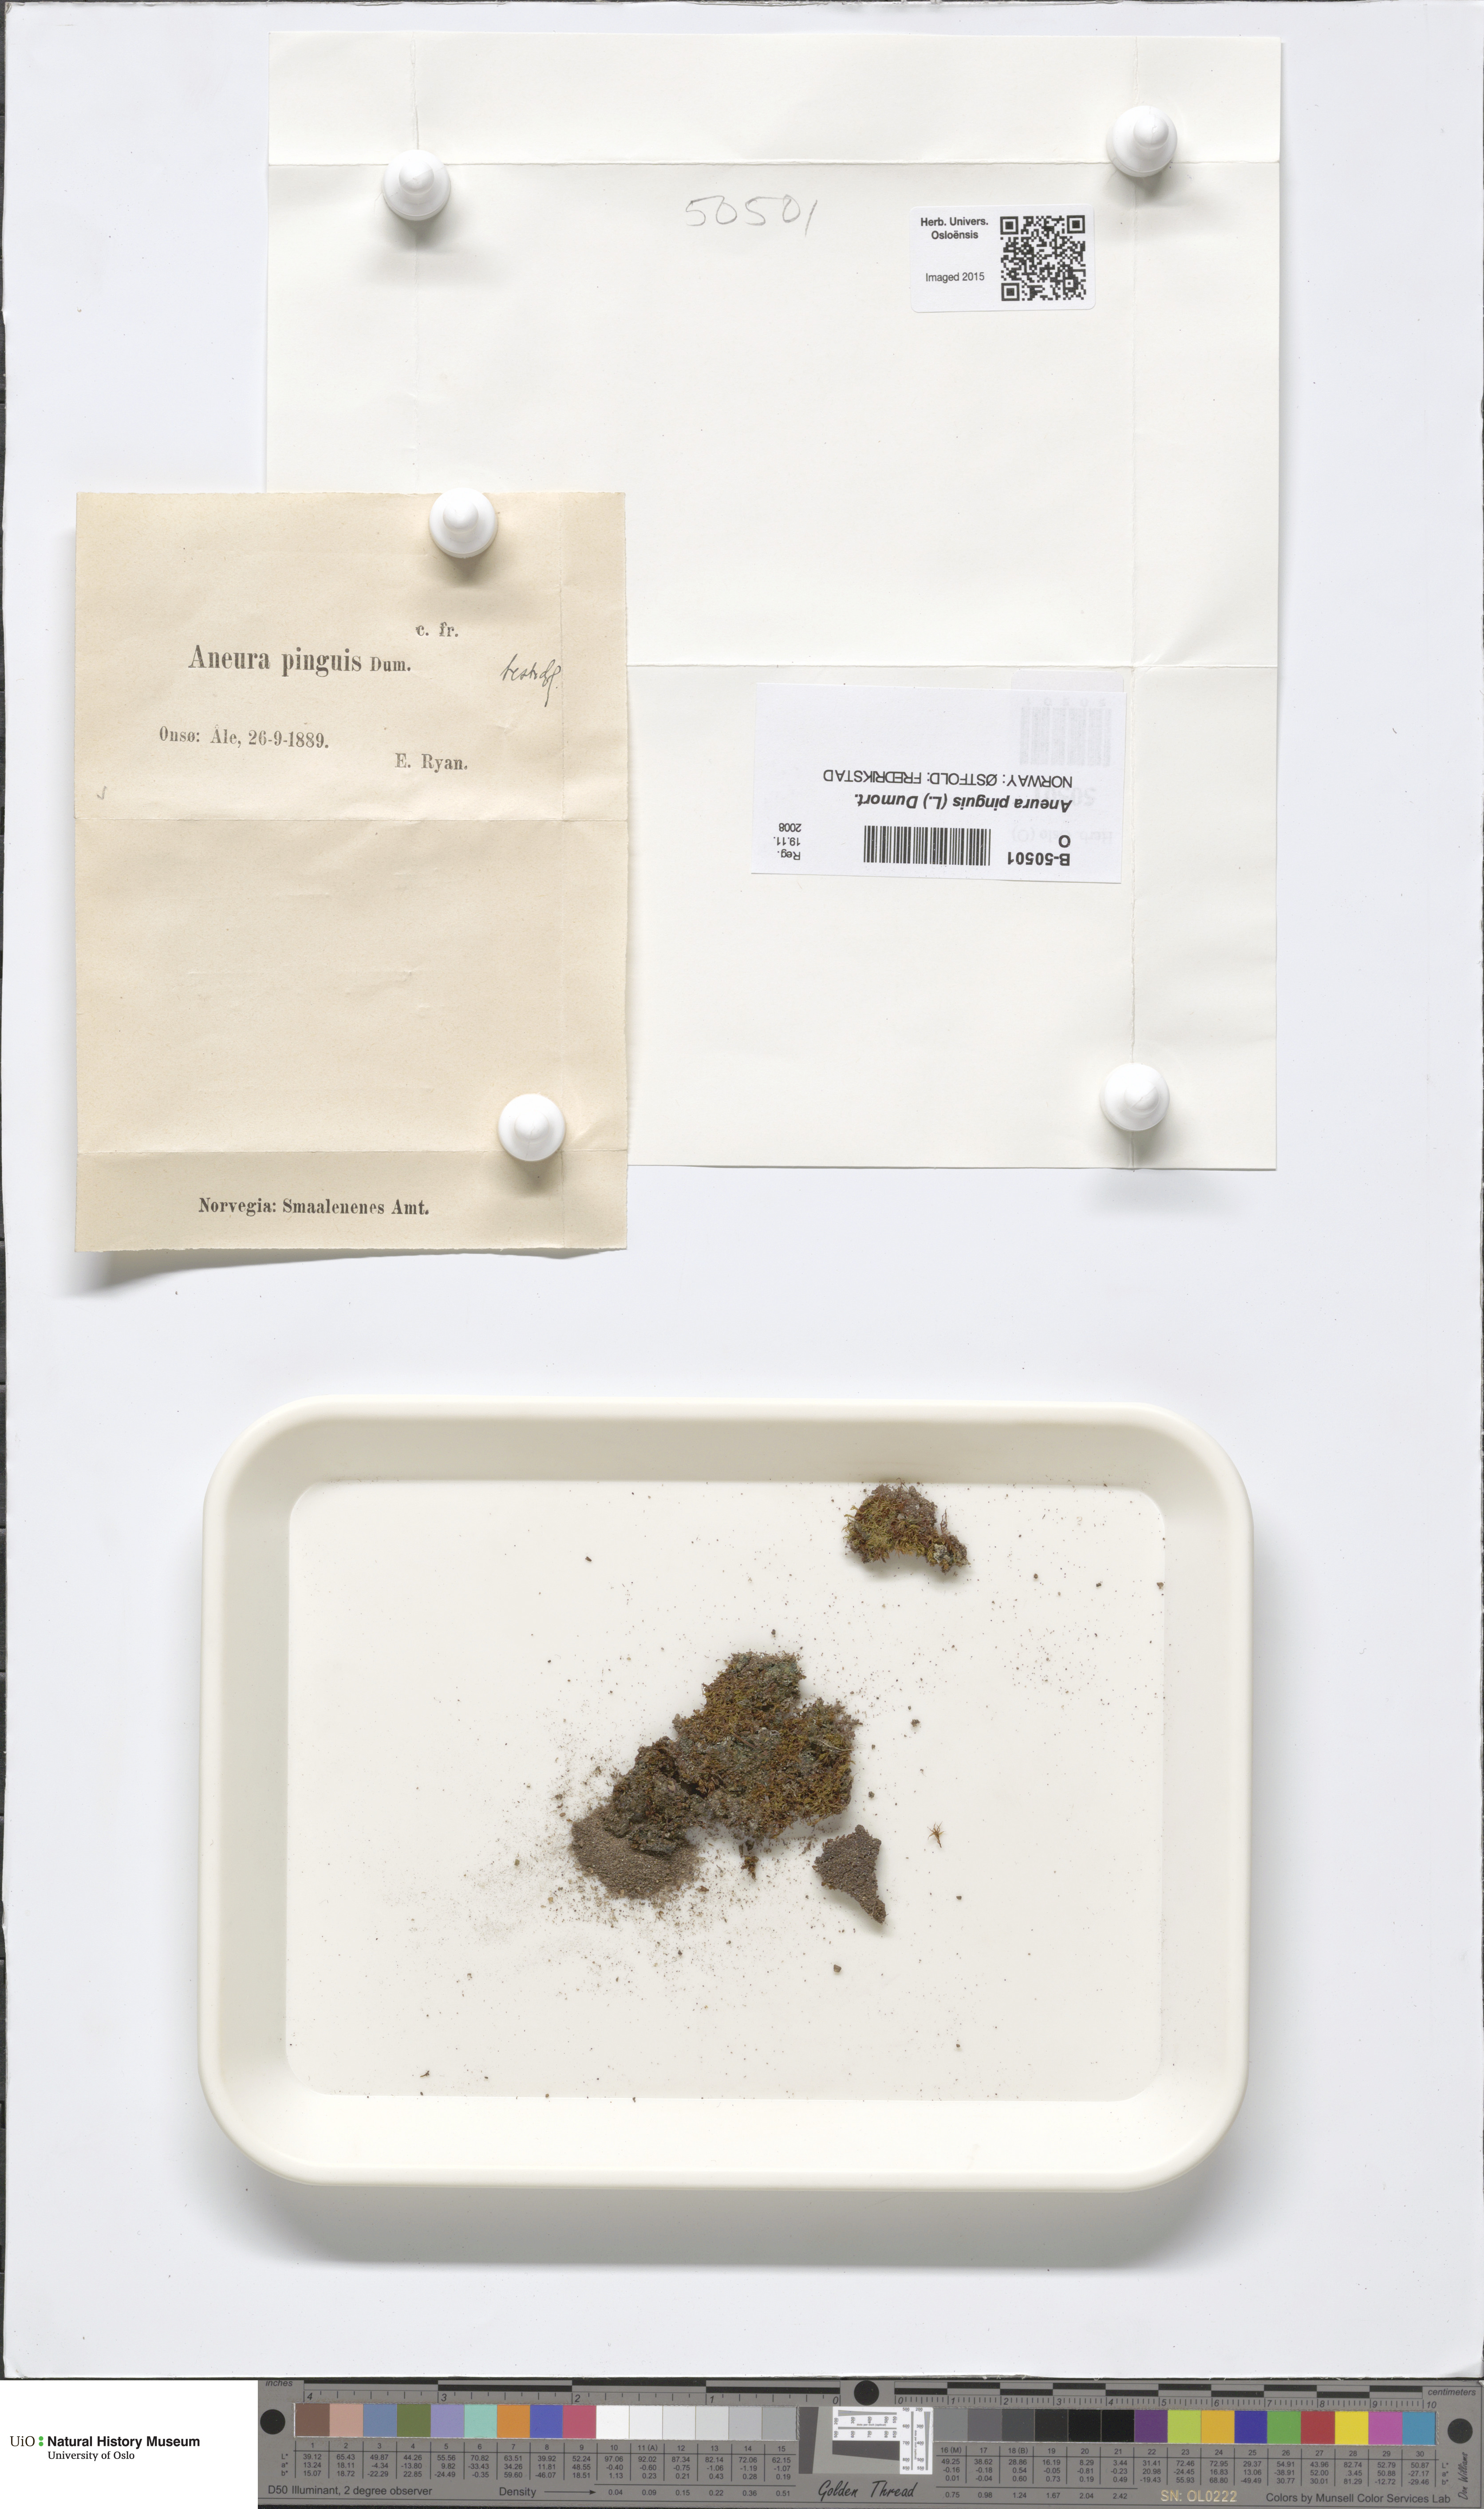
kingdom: Plantae
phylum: Marchantiophyta
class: Jungermanniopsida
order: Metzgeriales
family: Aneuraceae
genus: Aneura
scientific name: Aneura pinguis
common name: Common greasewort
